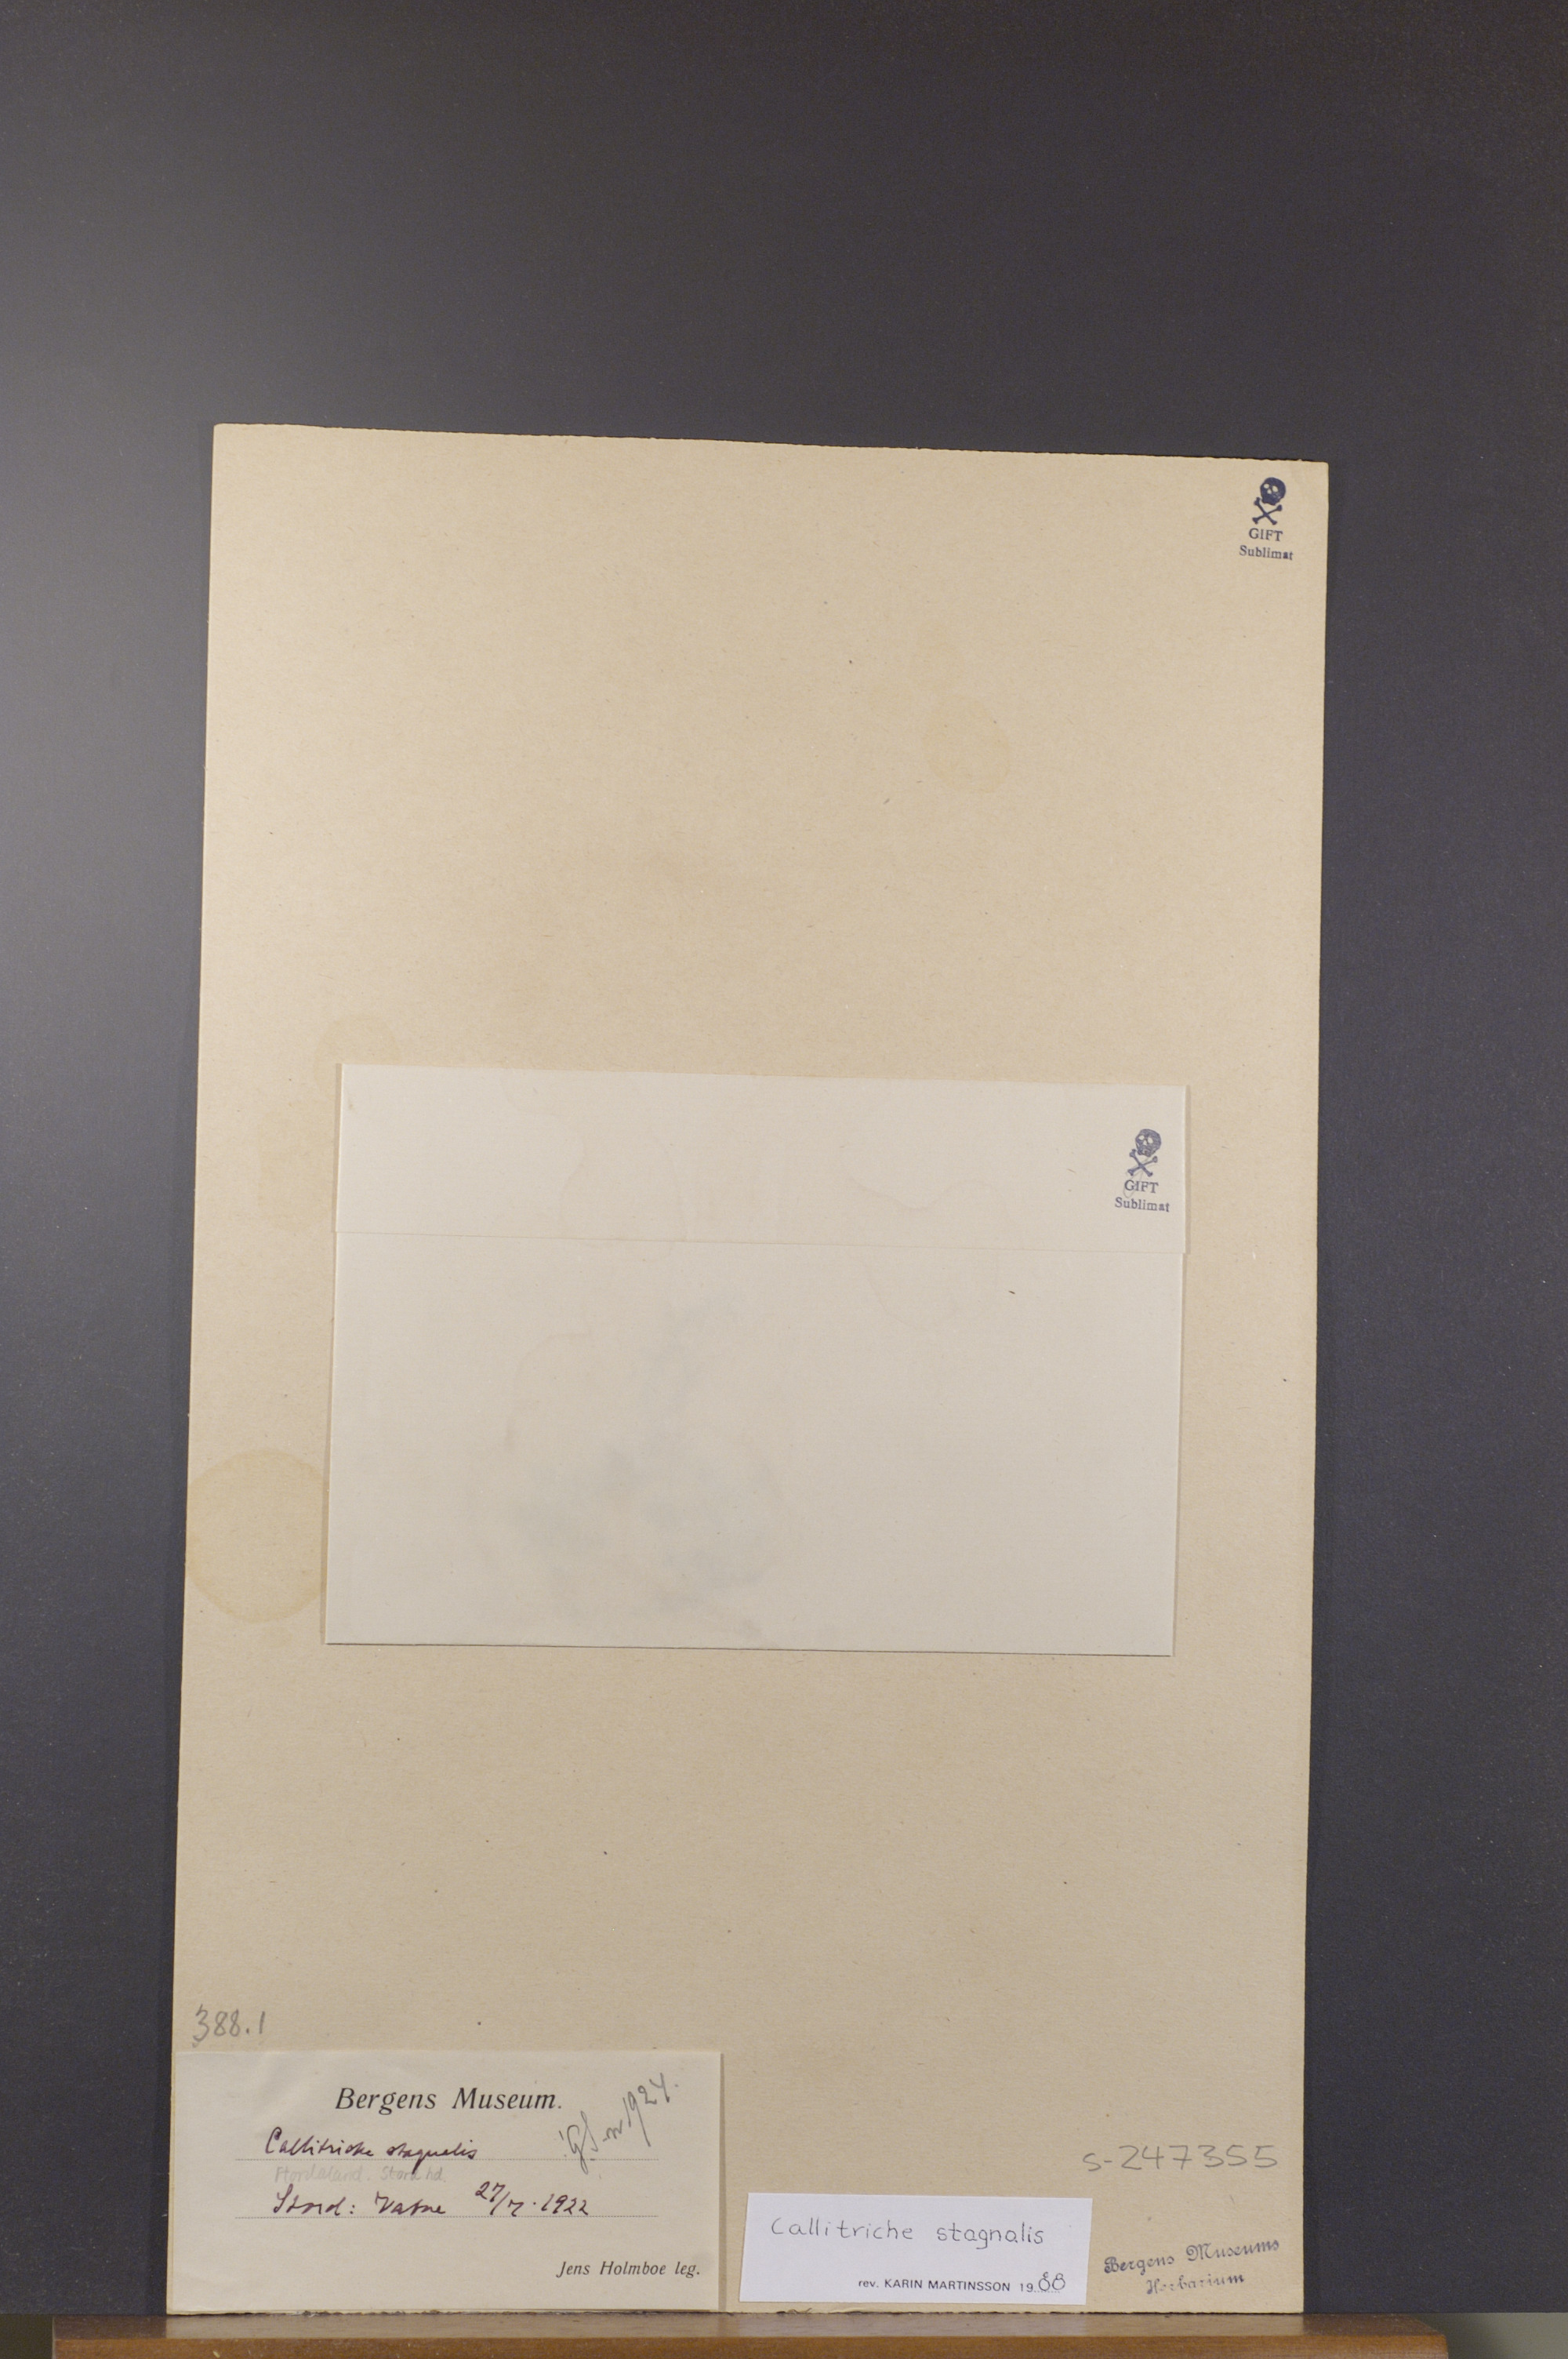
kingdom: Plantae
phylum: Tracheophyta
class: Magnoliopsida
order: Lamiales
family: Plantaginaceae
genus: Callitriche
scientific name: Callitriche stagnalis
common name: Common water-starwort
